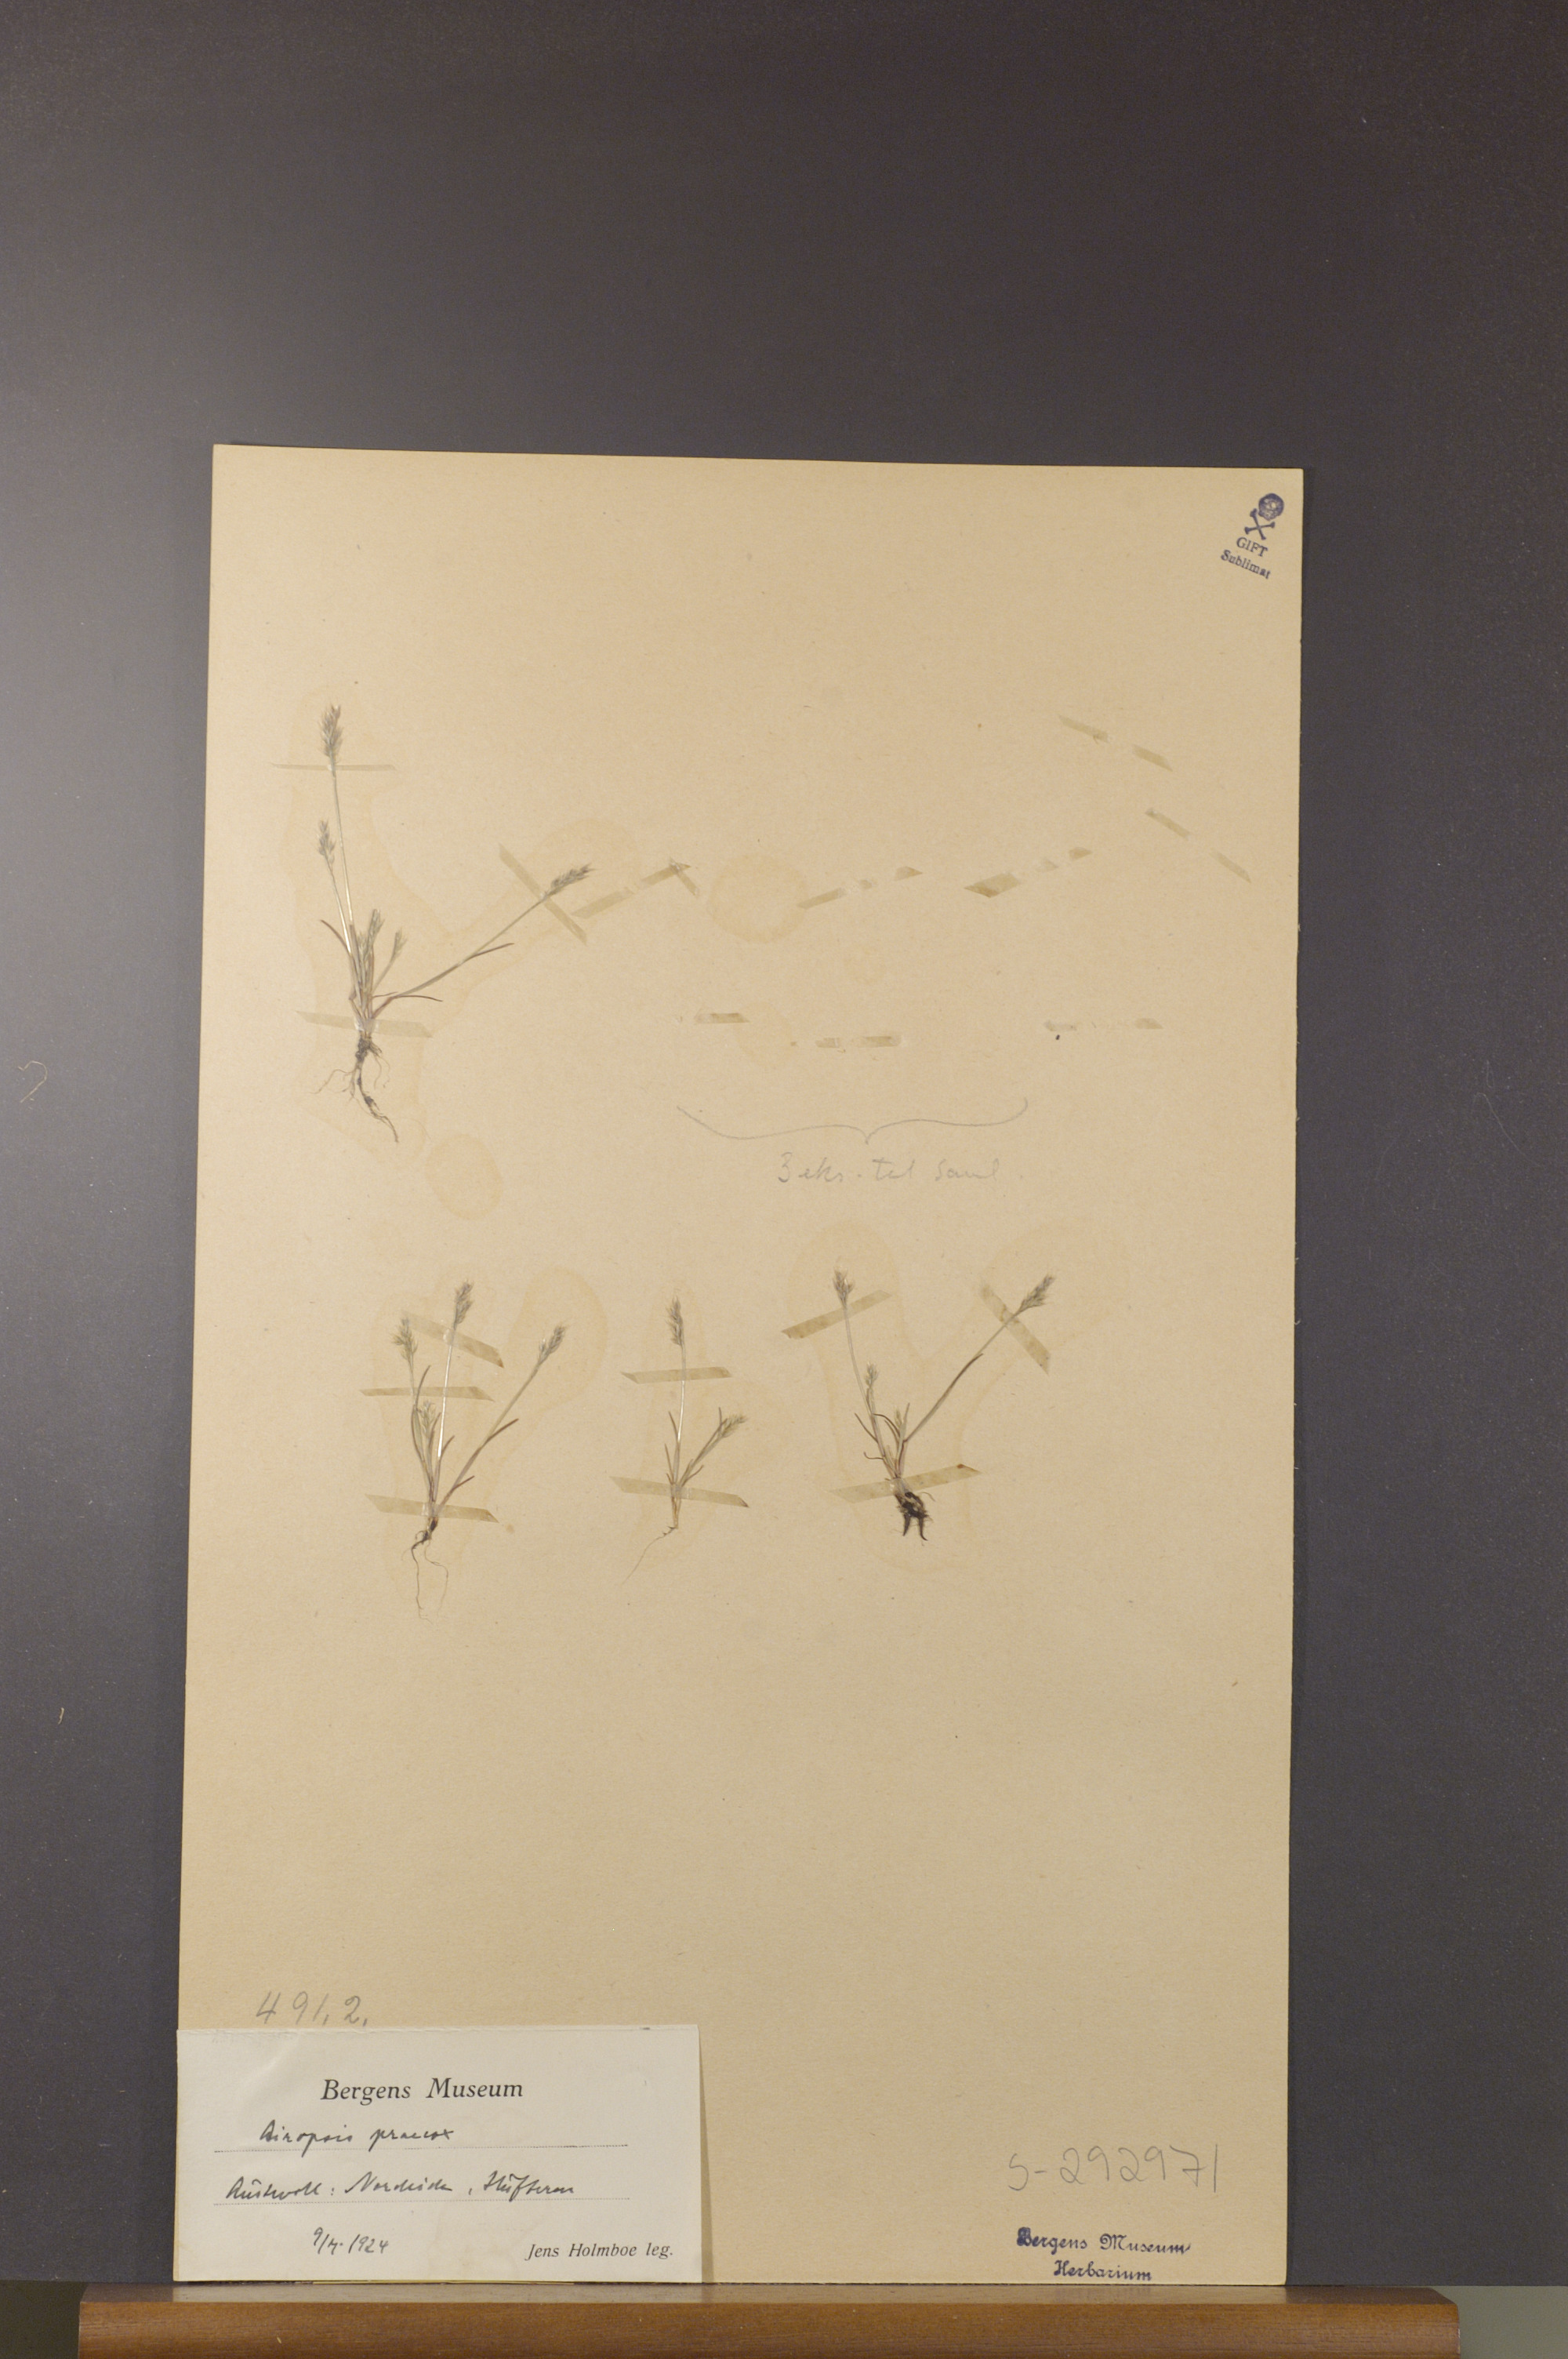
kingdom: Plantae
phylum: Tracheophyta
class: Liliopsida
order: Poales
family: Poaceae
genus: Aira
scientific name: Aira praecox
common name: Early hair-grass
